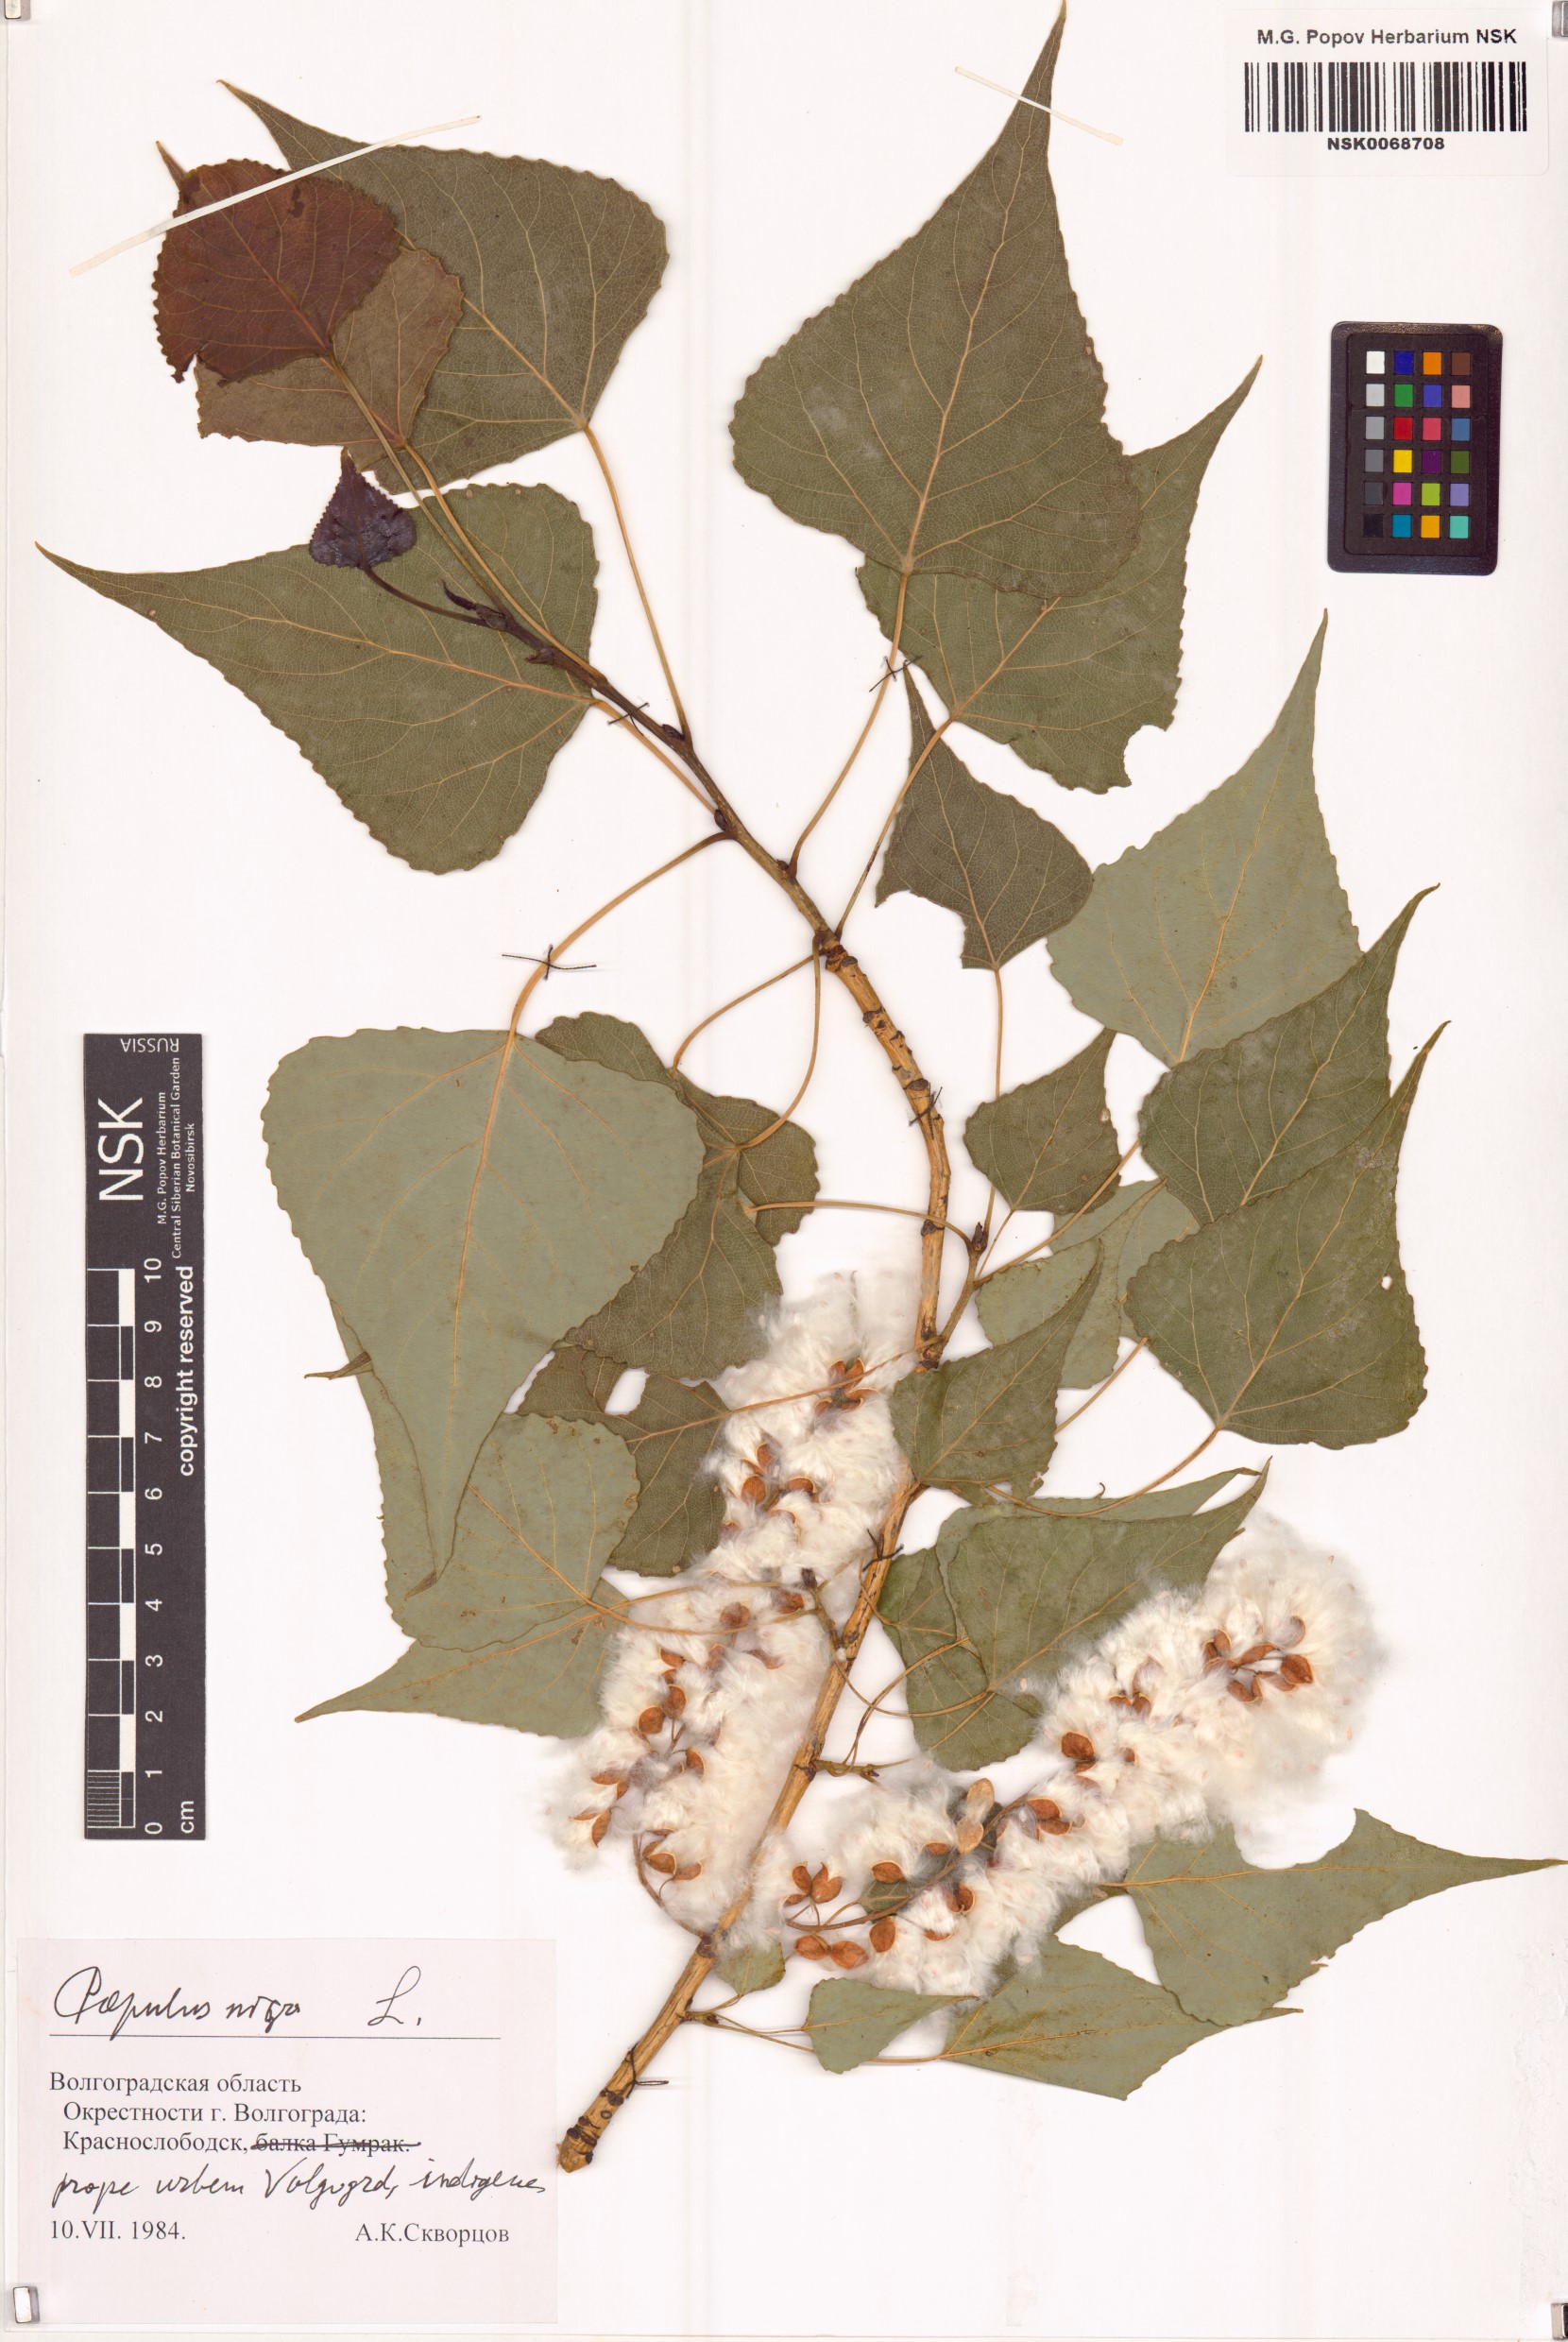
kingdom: Plantae
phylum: Tracheophyta
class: Magnoliopsida
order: Malpighiales
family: Salicaceae
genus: Populus
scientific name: Populus nigra
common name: Black poplar
